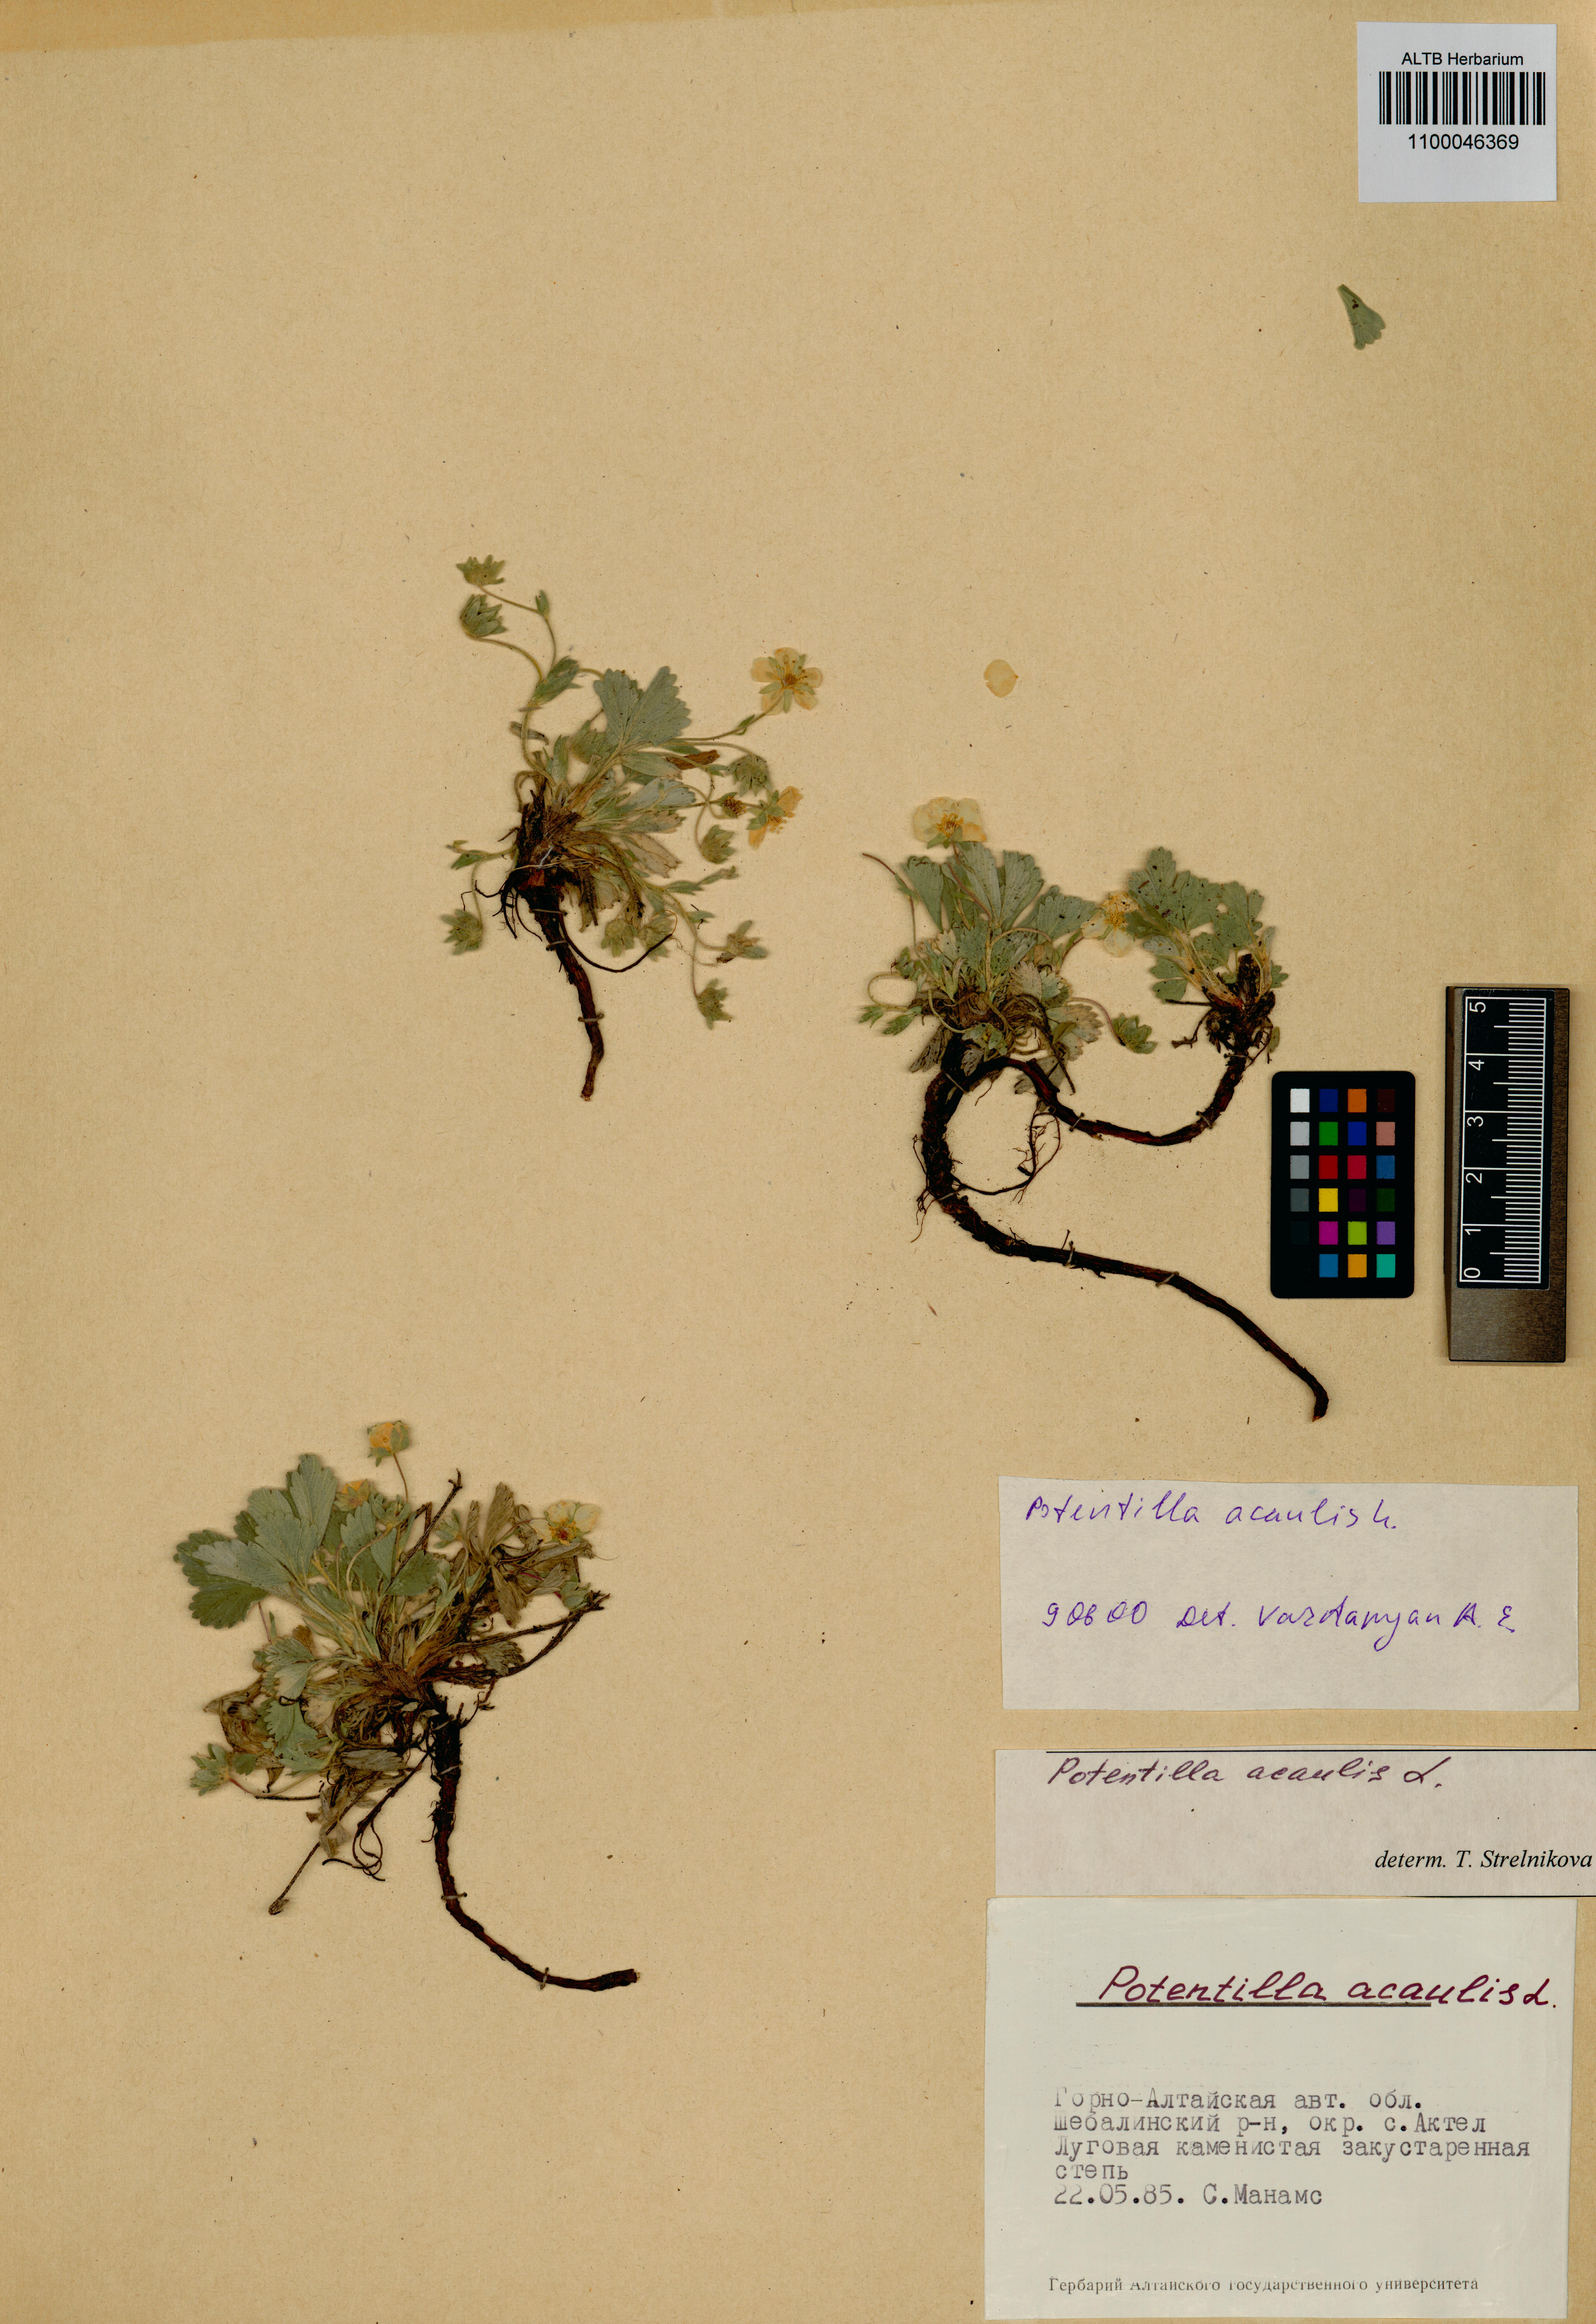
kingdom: Plantae
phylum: Tracheophyta
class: Magnoliopsida
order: Rosales
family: Rosaceae
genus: Potentilla
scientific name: Potentilla acaulis
